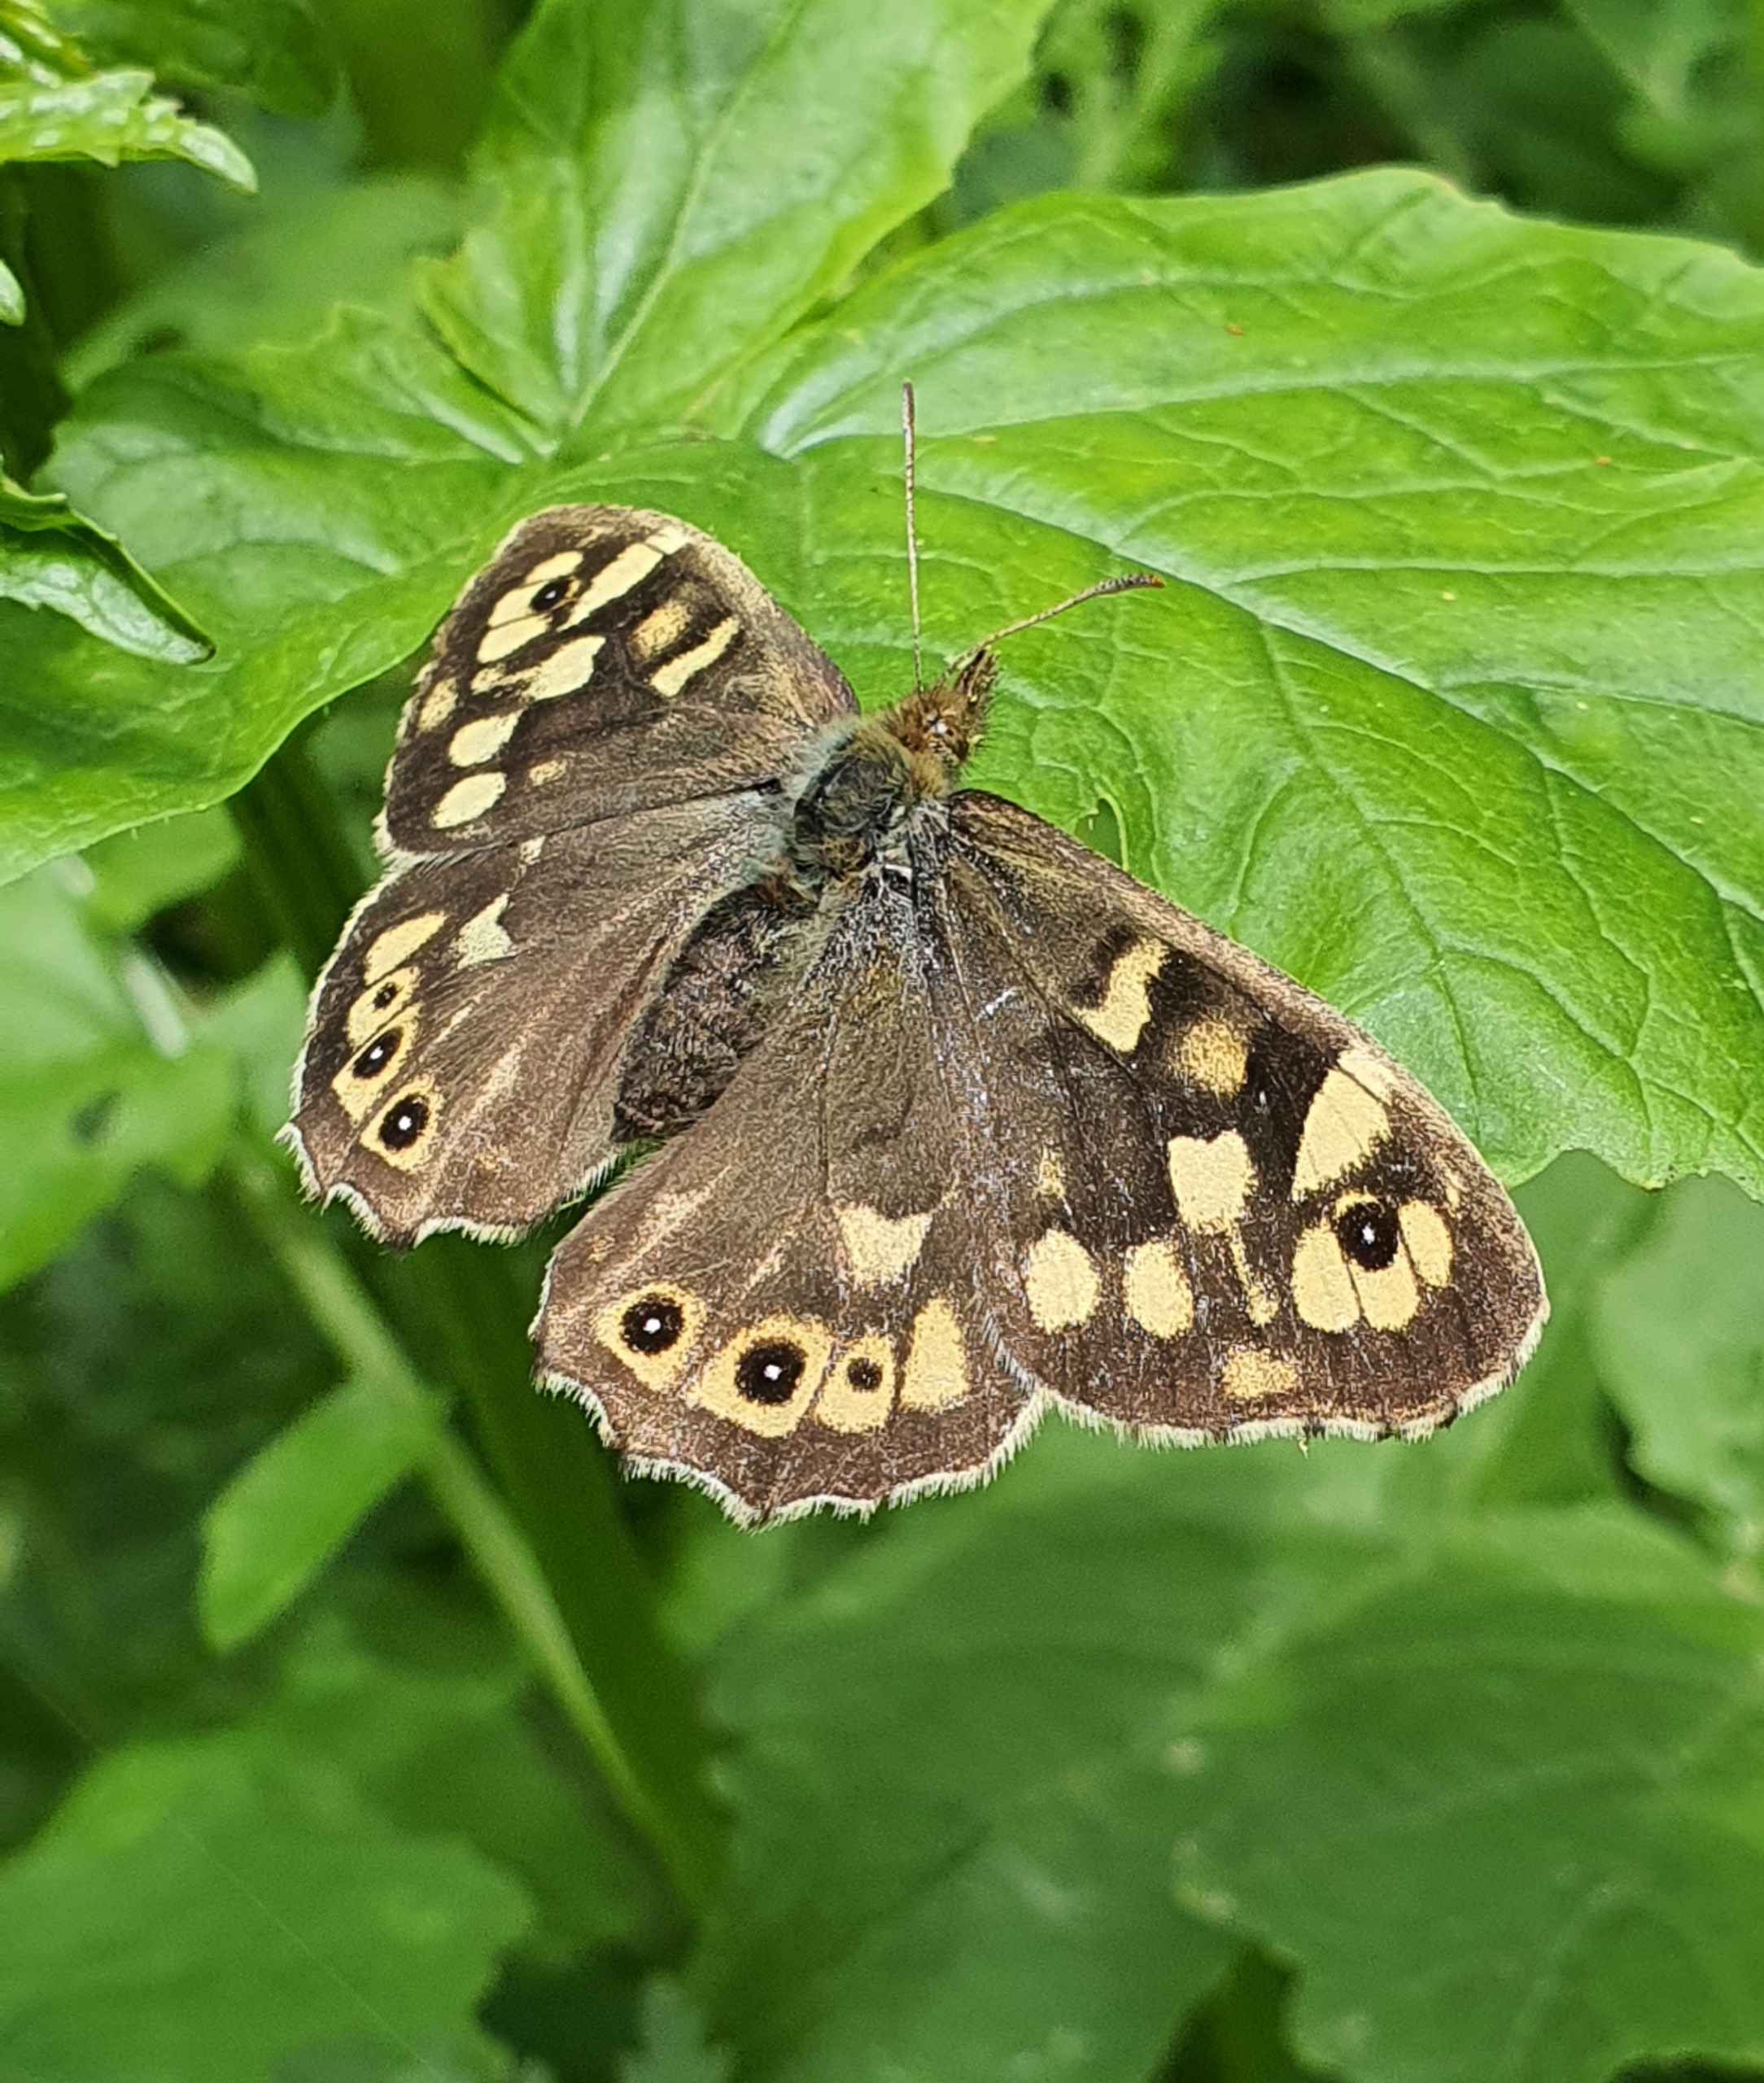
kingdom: Animalia
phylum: Arthropoda
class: Insecta
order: Lepidoptera
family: Nymphalidae
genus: Pararge
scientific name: Pararge aegeria
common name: Skovrandøje
